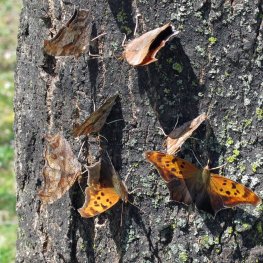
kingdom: Animalia
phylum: Arthropoda
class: Insecta
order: Lepidoptera
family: Nymphalidae
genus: Polygonia
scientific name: Polygonia interrogationis
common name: Question Mark
